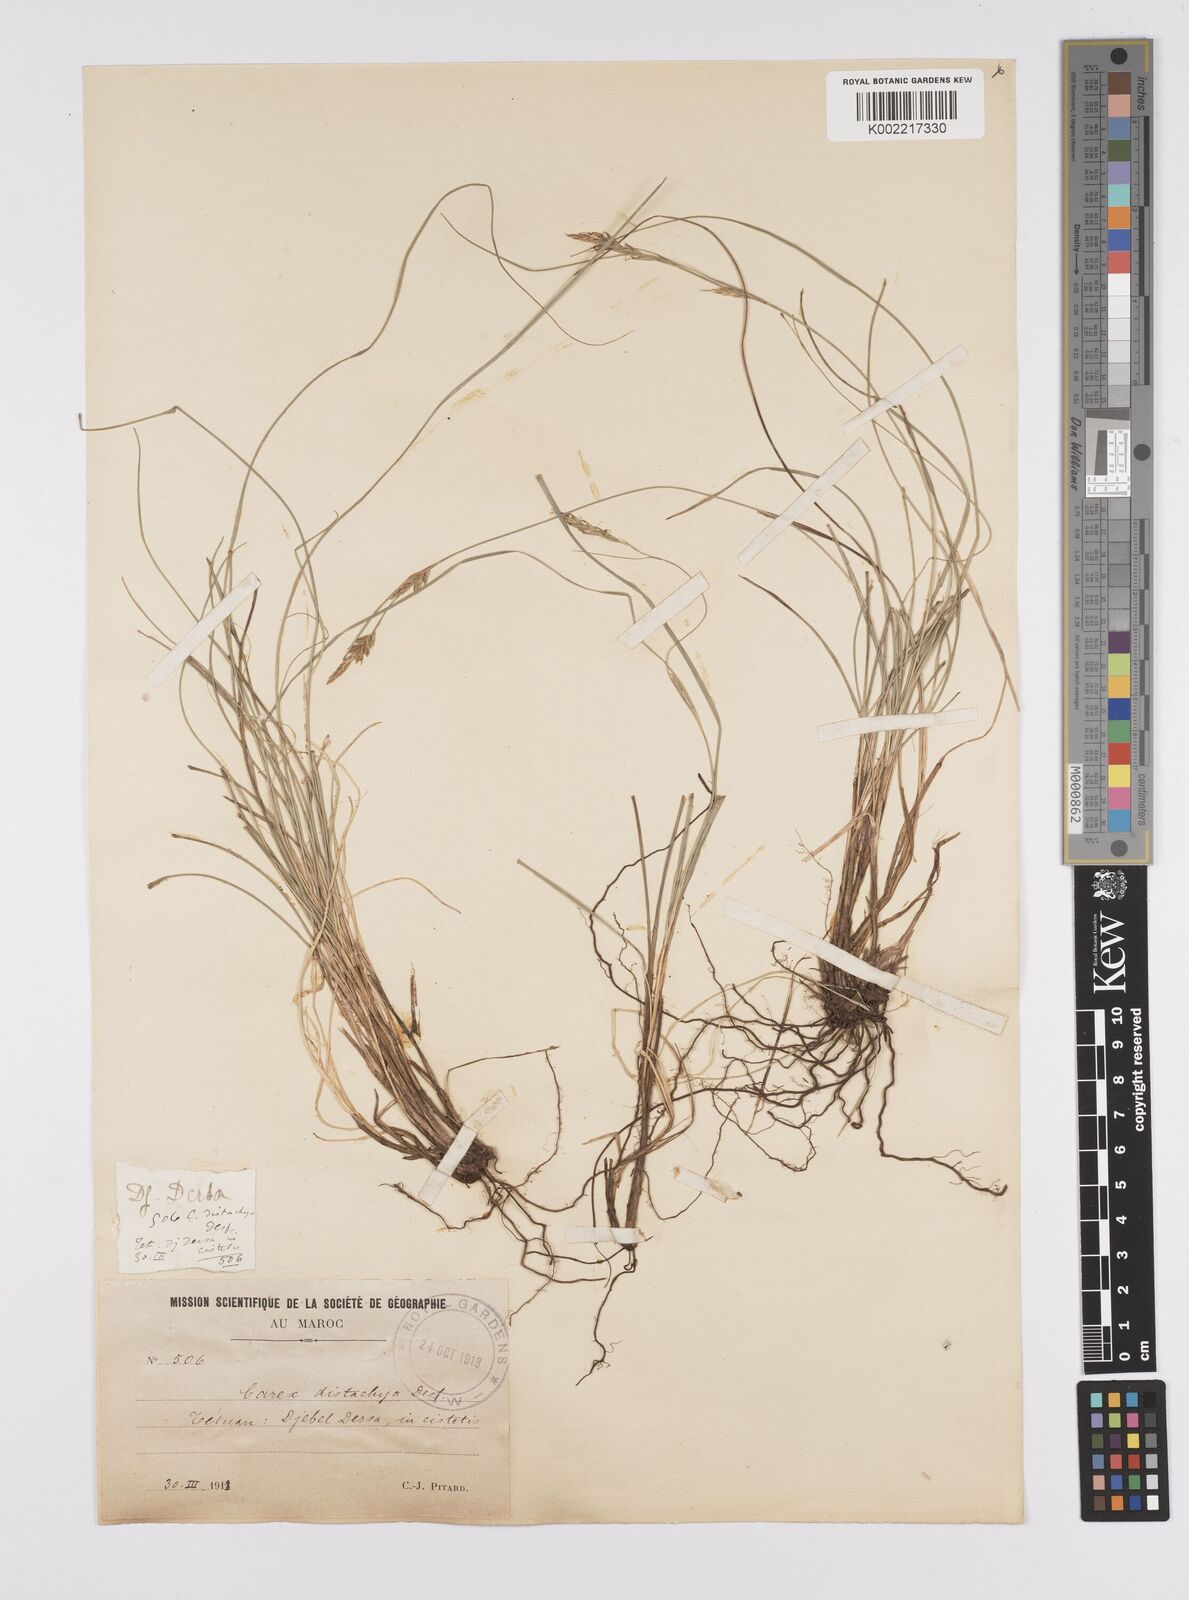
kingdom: Plantae
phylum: Tracheophyta
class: Liliopsida
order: Poales
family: Cyperaceae
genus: Carex
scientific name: Carex distachya
